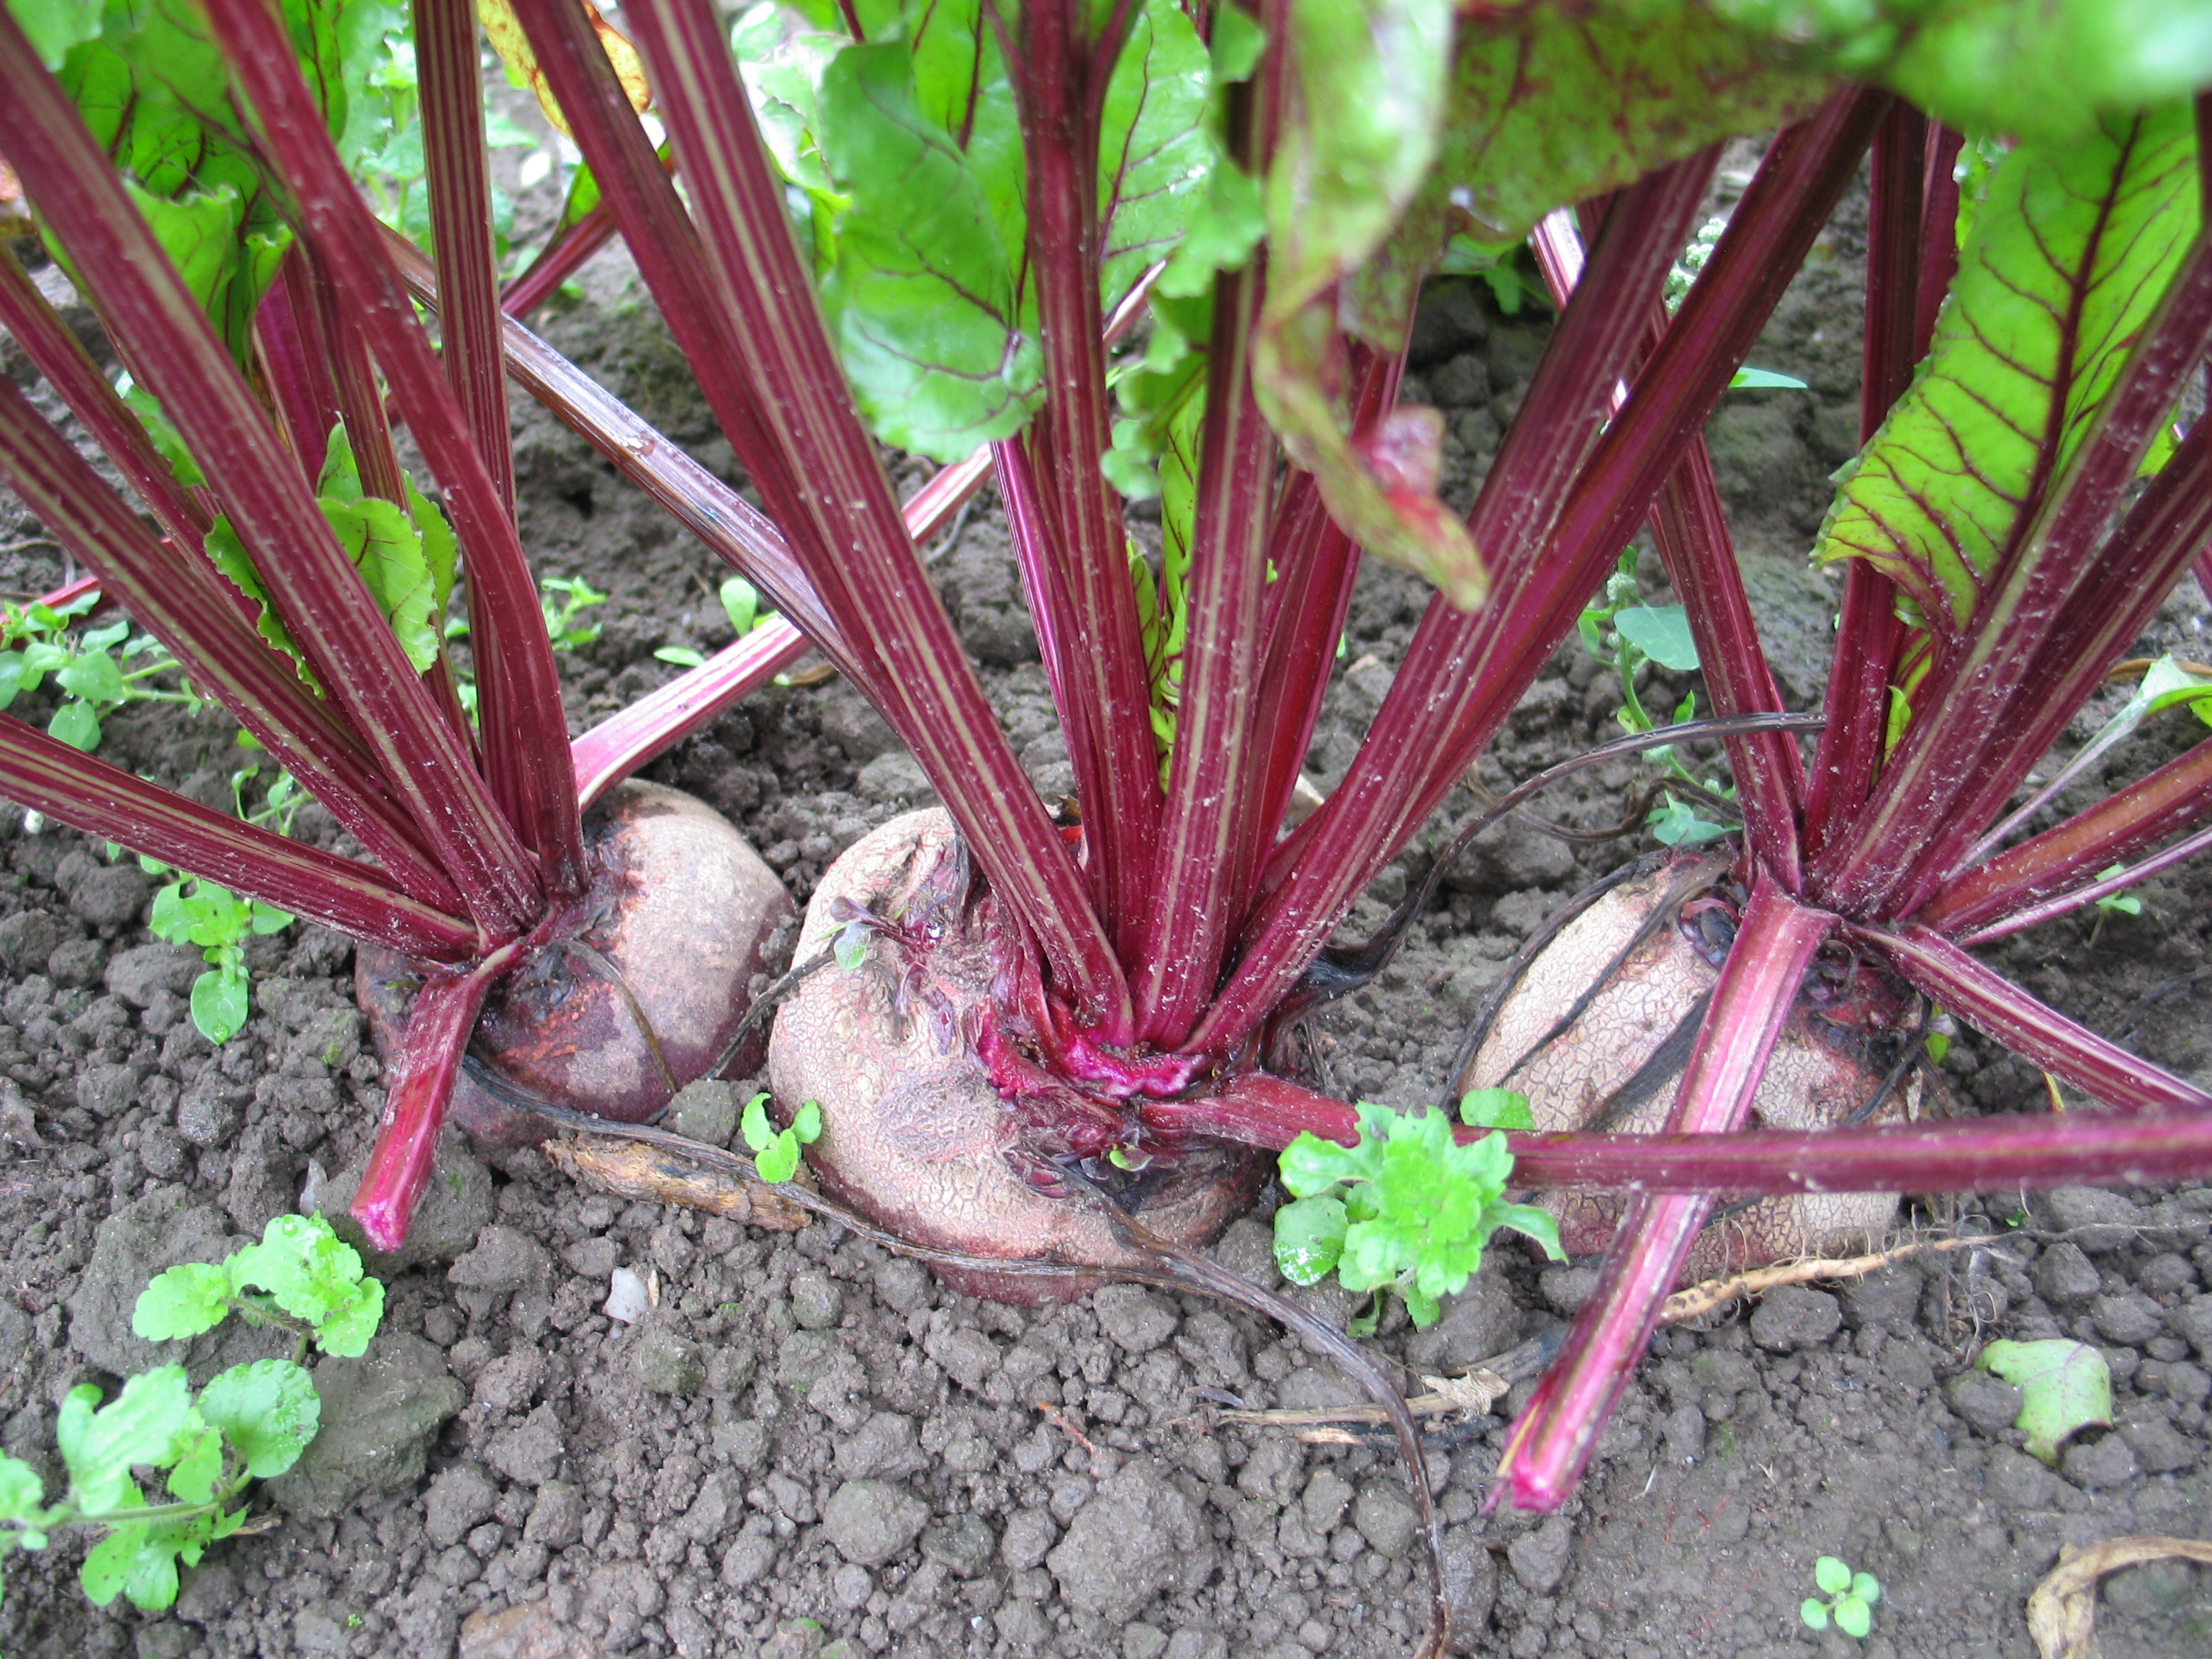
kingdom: Plantae
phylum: Tracheophyta
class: Magnoliopsida
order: Caryophyllales
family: Amaranthaceae
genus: Beta
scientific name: Beta vulgaris
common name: Beet
